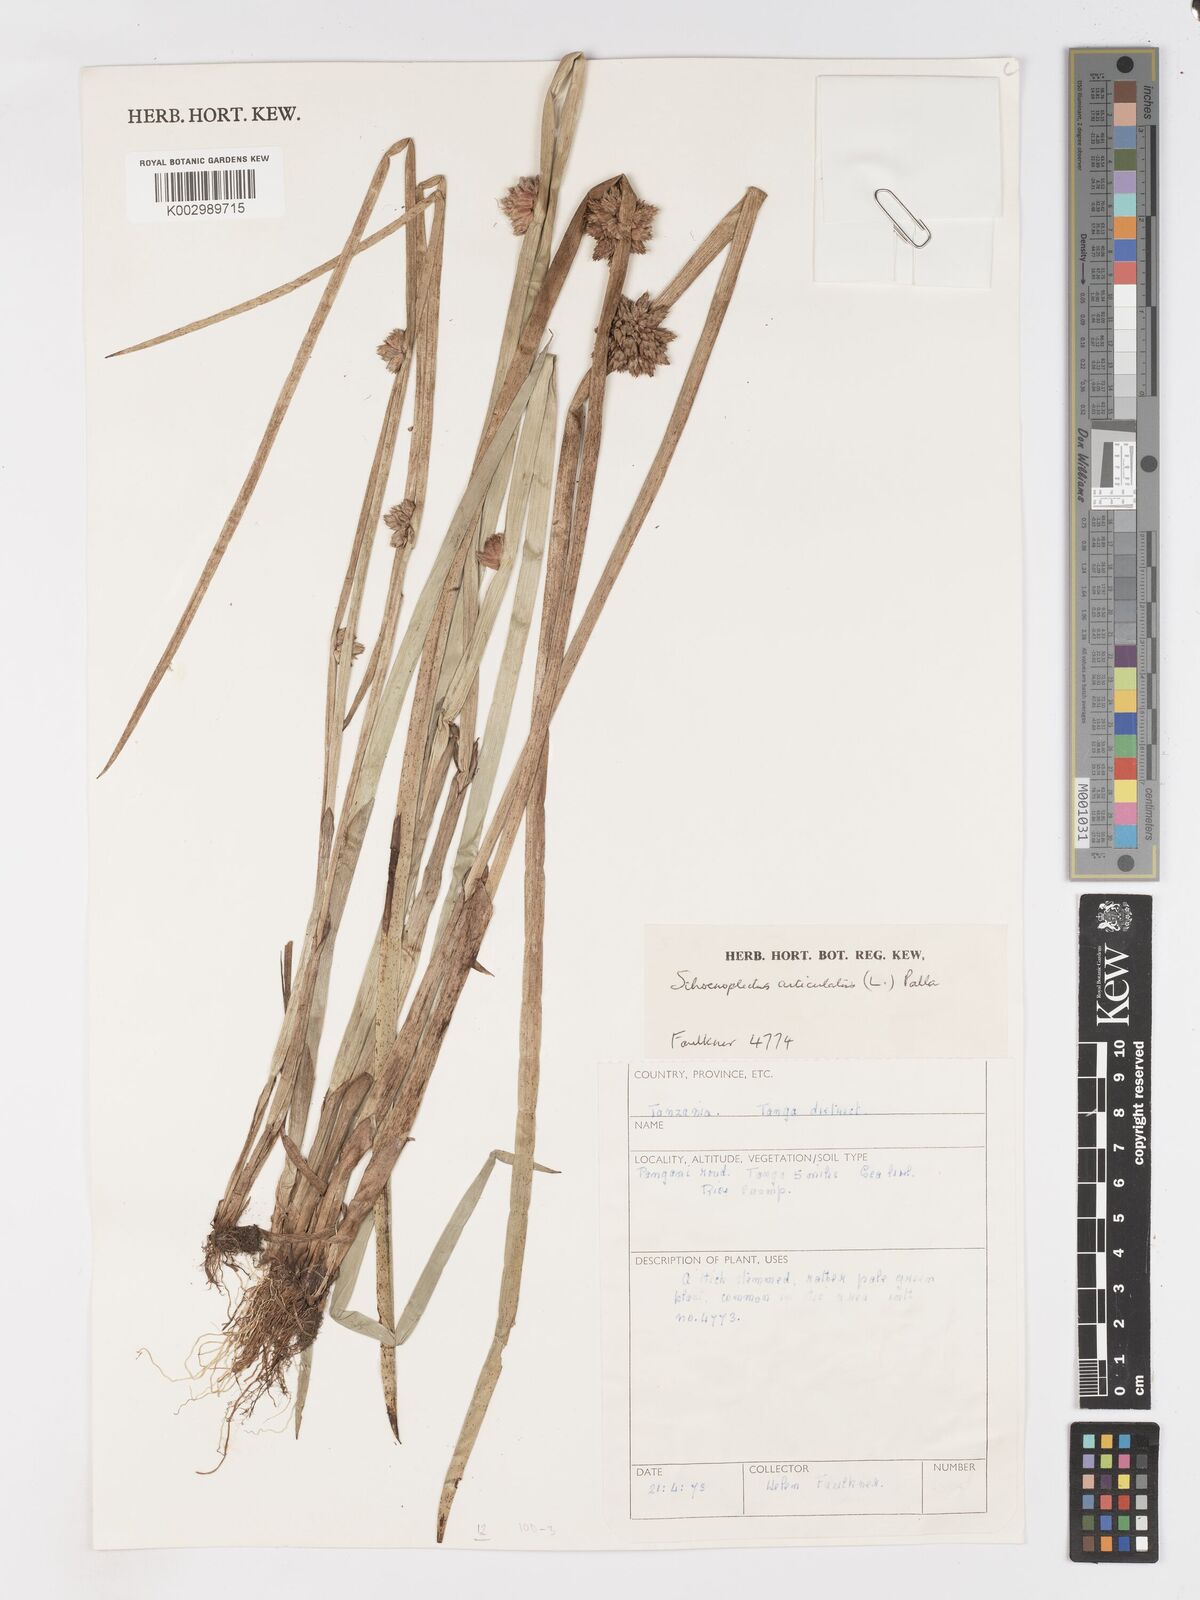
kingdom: Plantae
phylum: Tracheophyta
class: Liliopsida
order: Poales
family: Cyperaceae
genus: Schoenoplectiella
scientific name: Schoenoplectiella articulata
